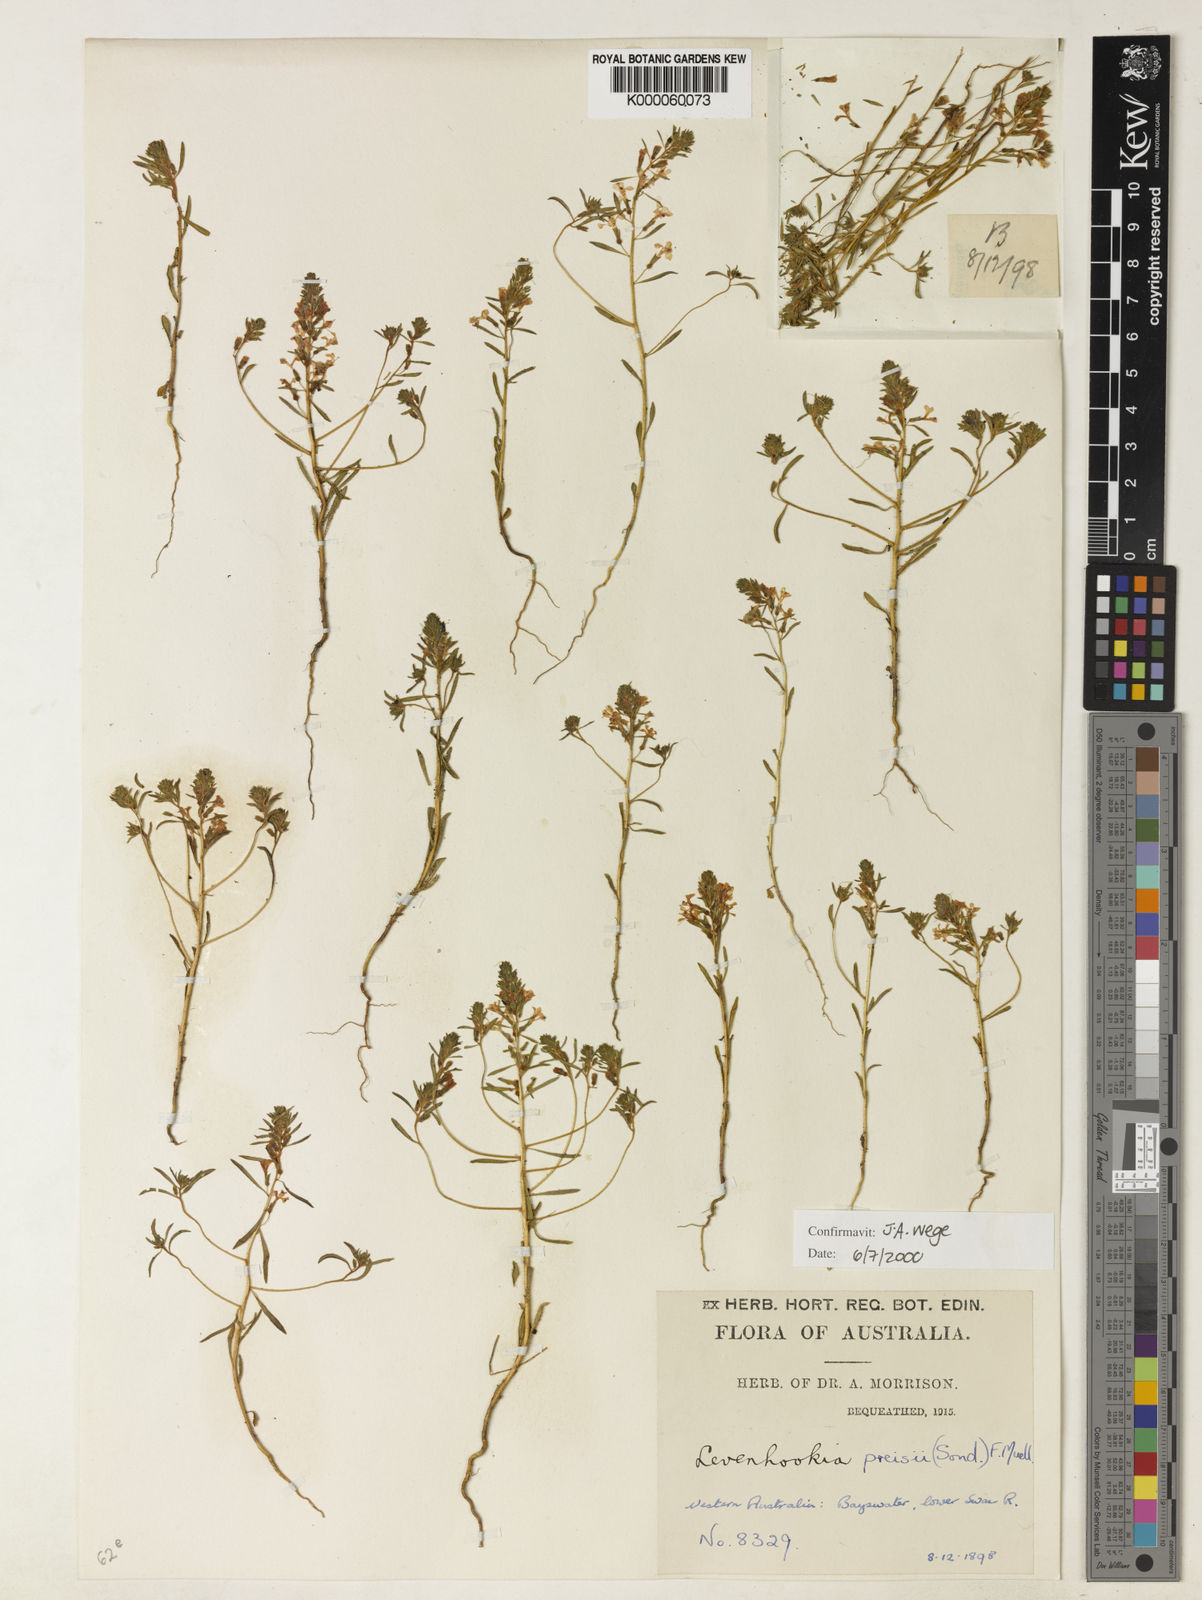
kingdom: Plantae
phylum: Tracheophyta
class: Magnoliopsida
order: Asterales
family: Stylidiaceae
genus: Levenhookia
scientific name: Levenhookia preissii
